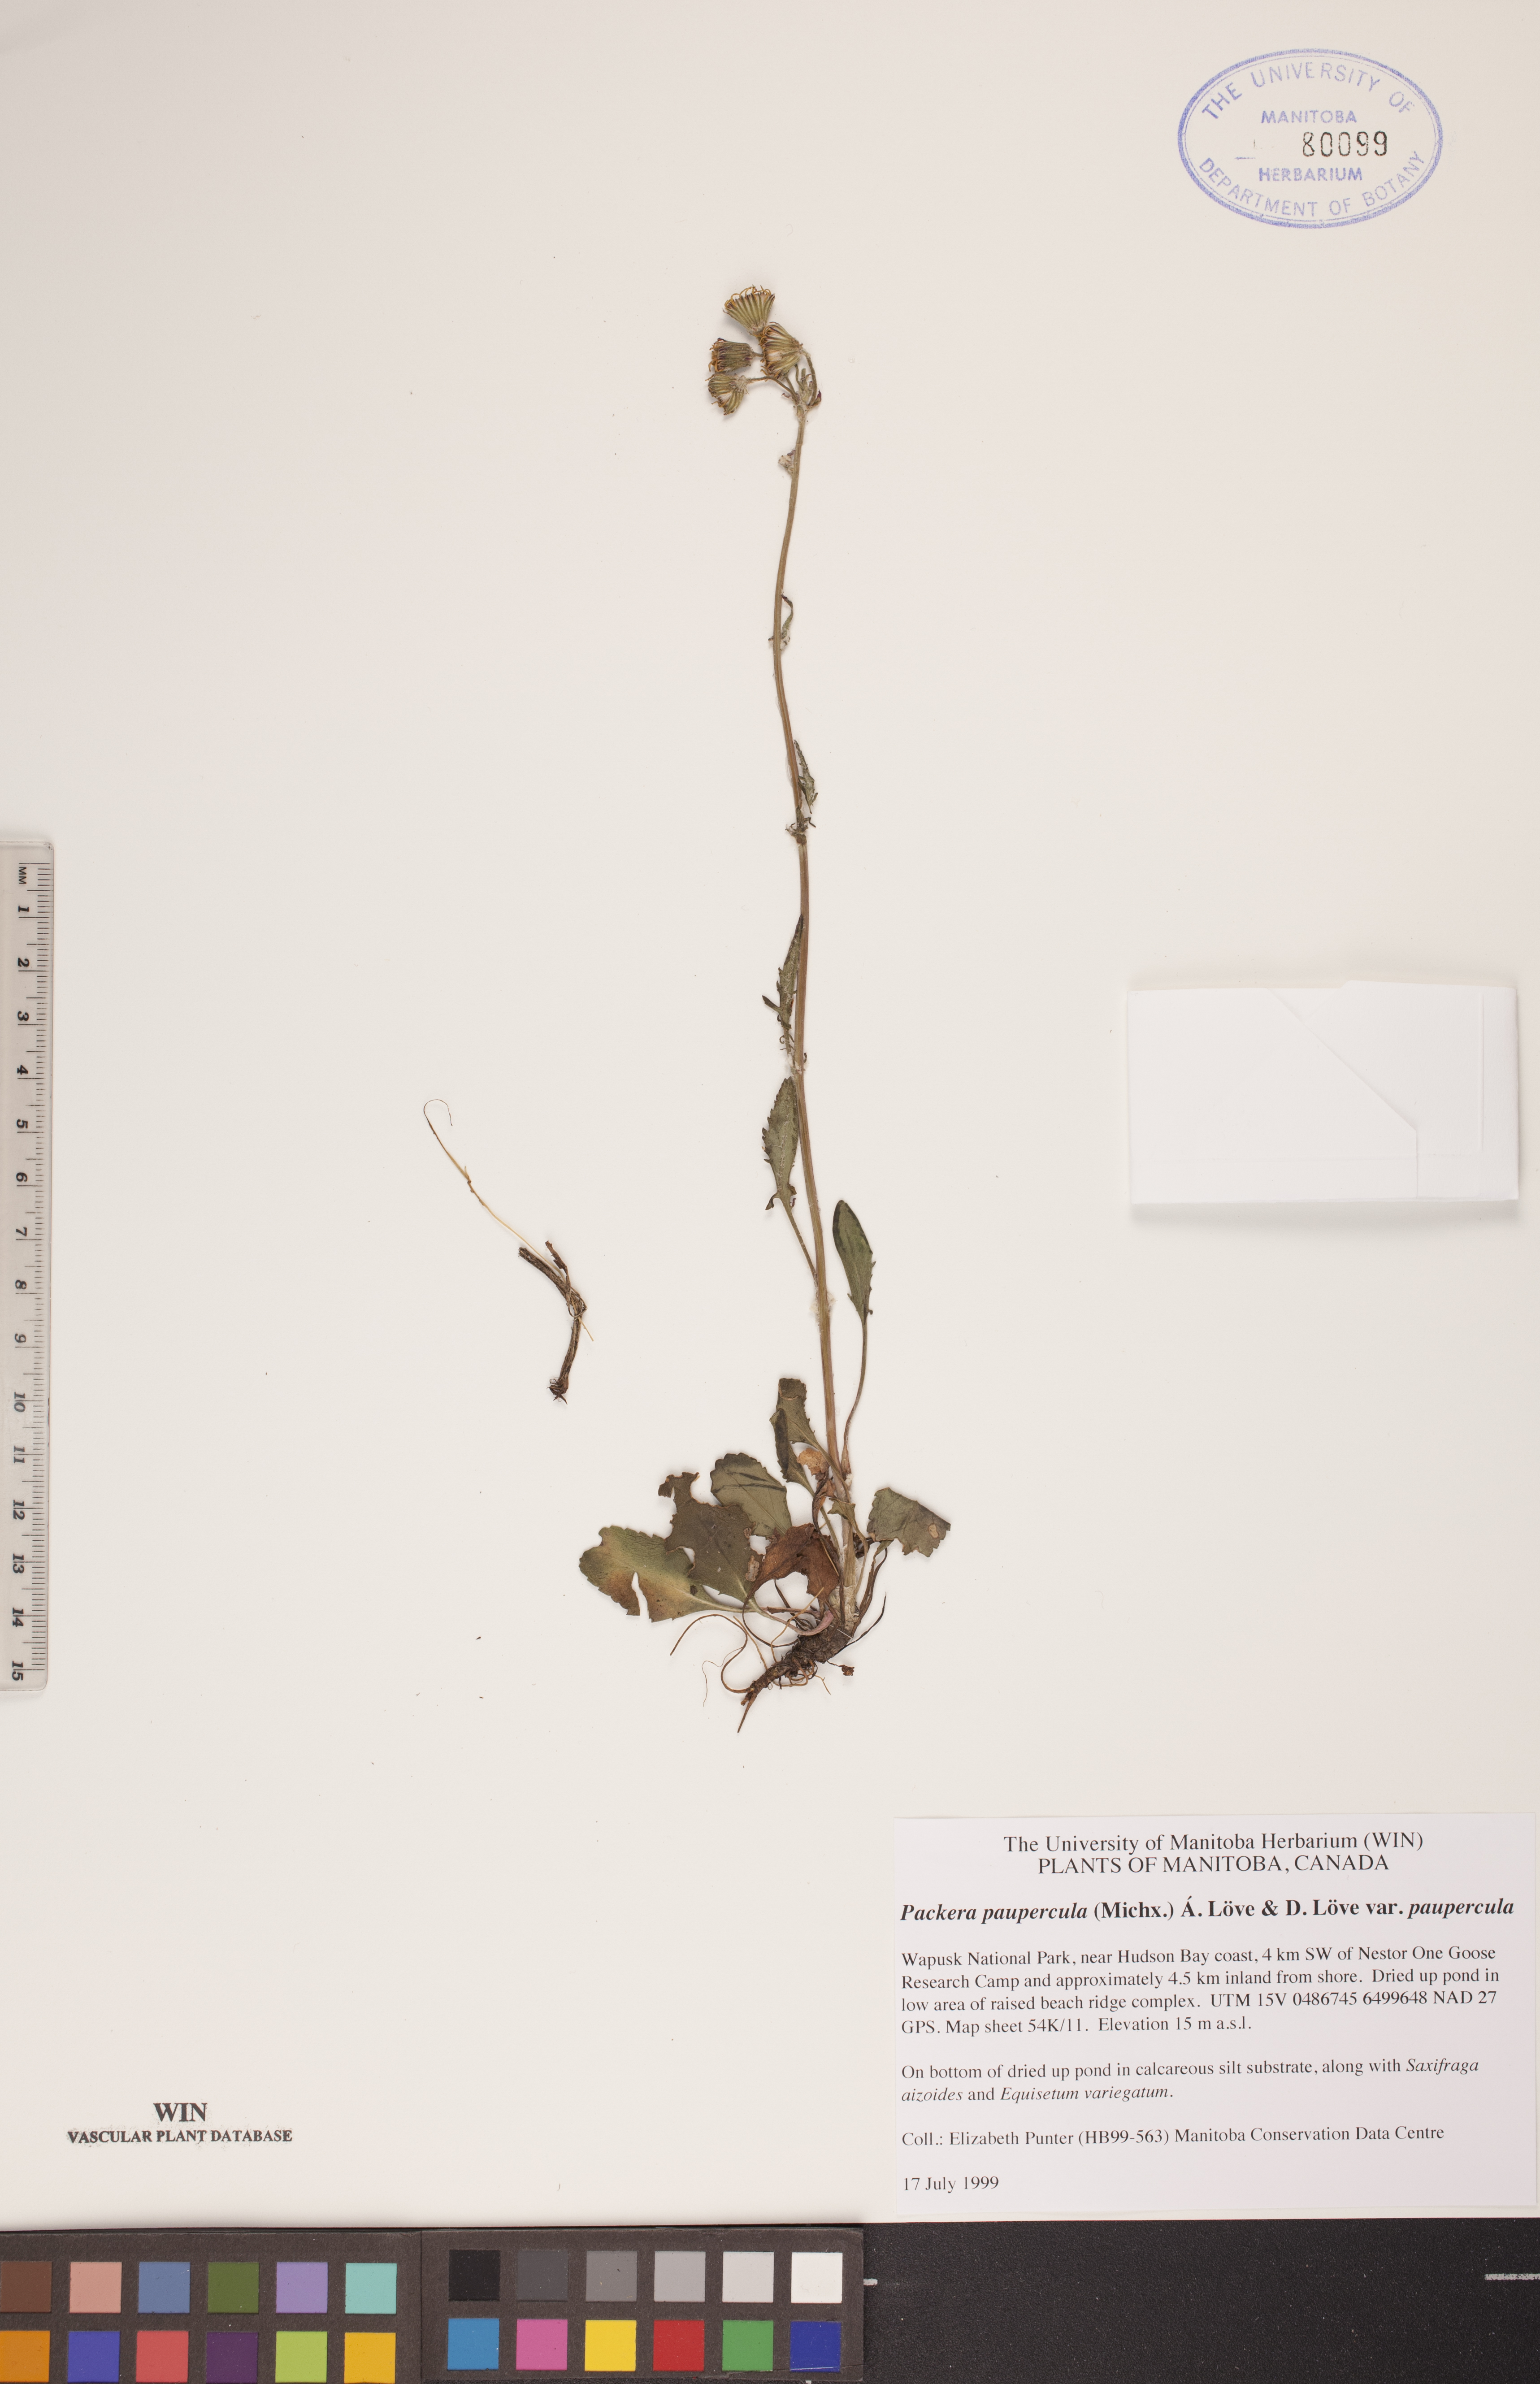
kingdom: Plantae
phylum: Tracheophyta
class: Magnoliopsida
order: Asterales
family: Asteraceae
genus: Packera
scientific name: Packera paupercula
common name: Balsam groundsel
